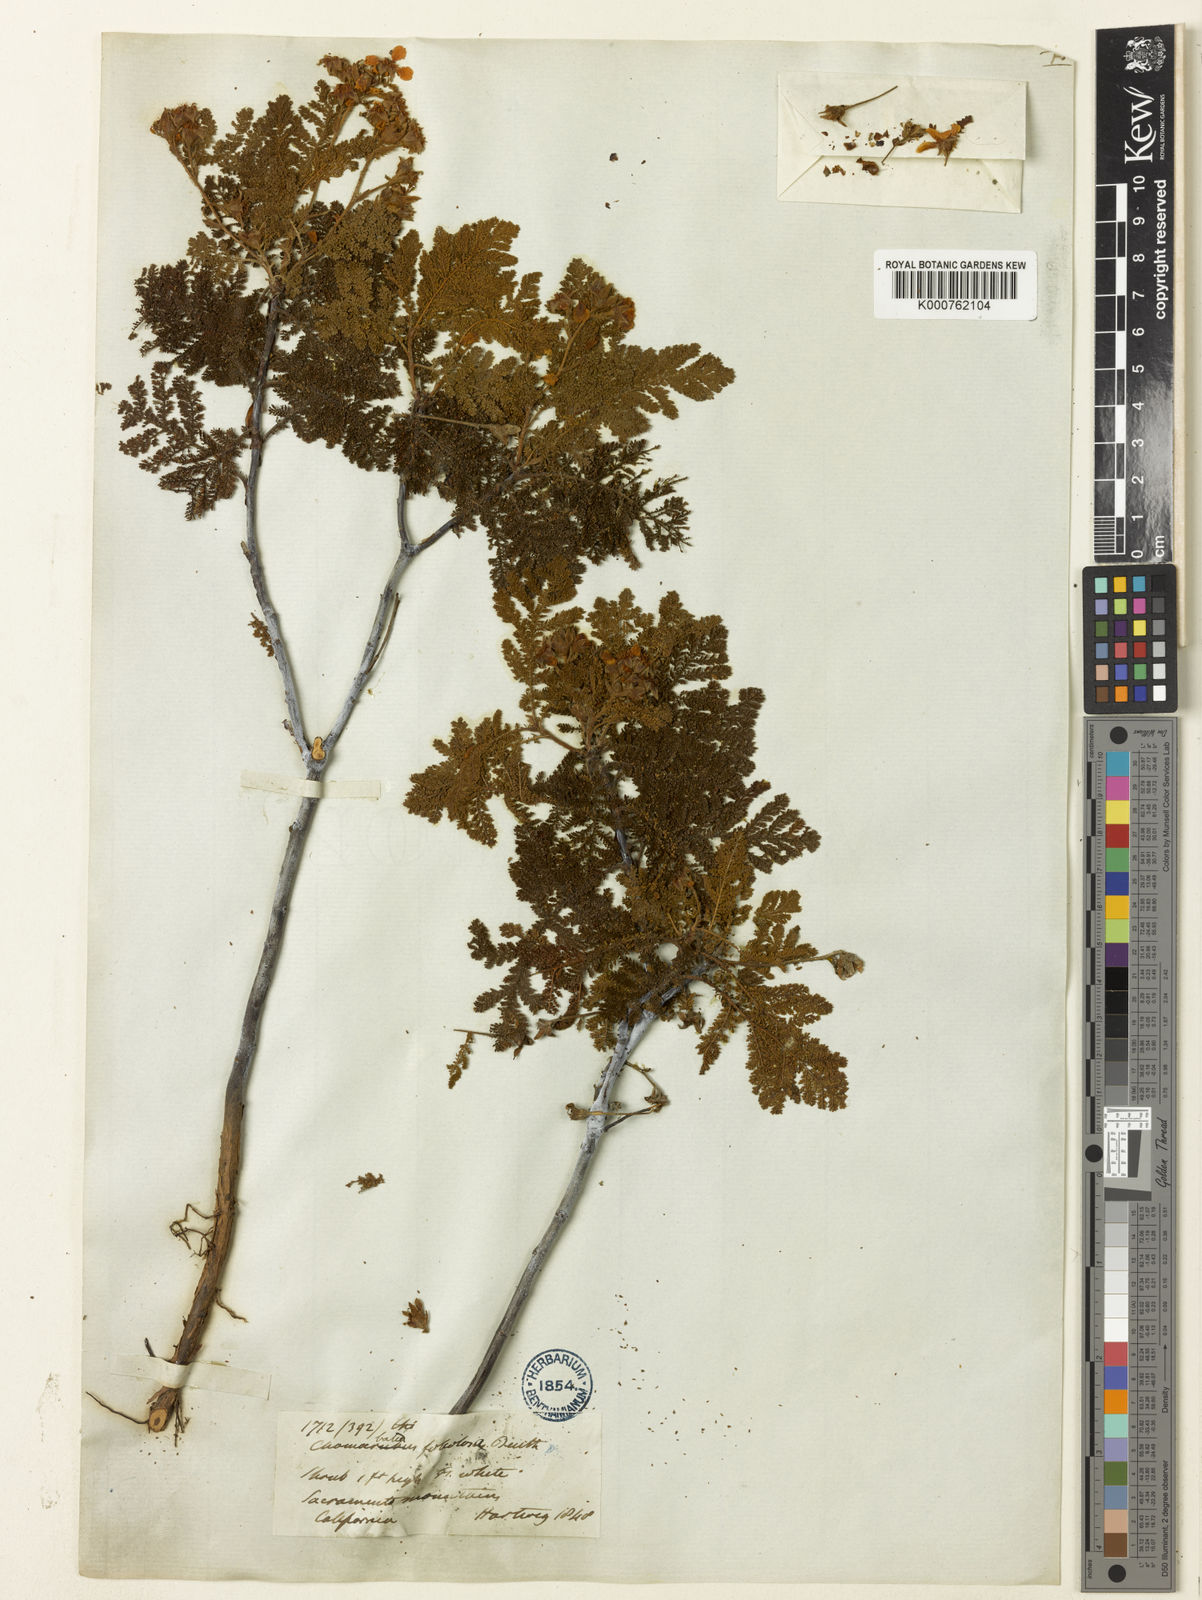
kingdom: Plantae
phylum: Tracheophyta
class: Magnoliopsida
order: Rosales
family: Rosaceae
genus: Chamaebatia
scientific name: Chamaebatia foliolosa
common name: Mountain misery
